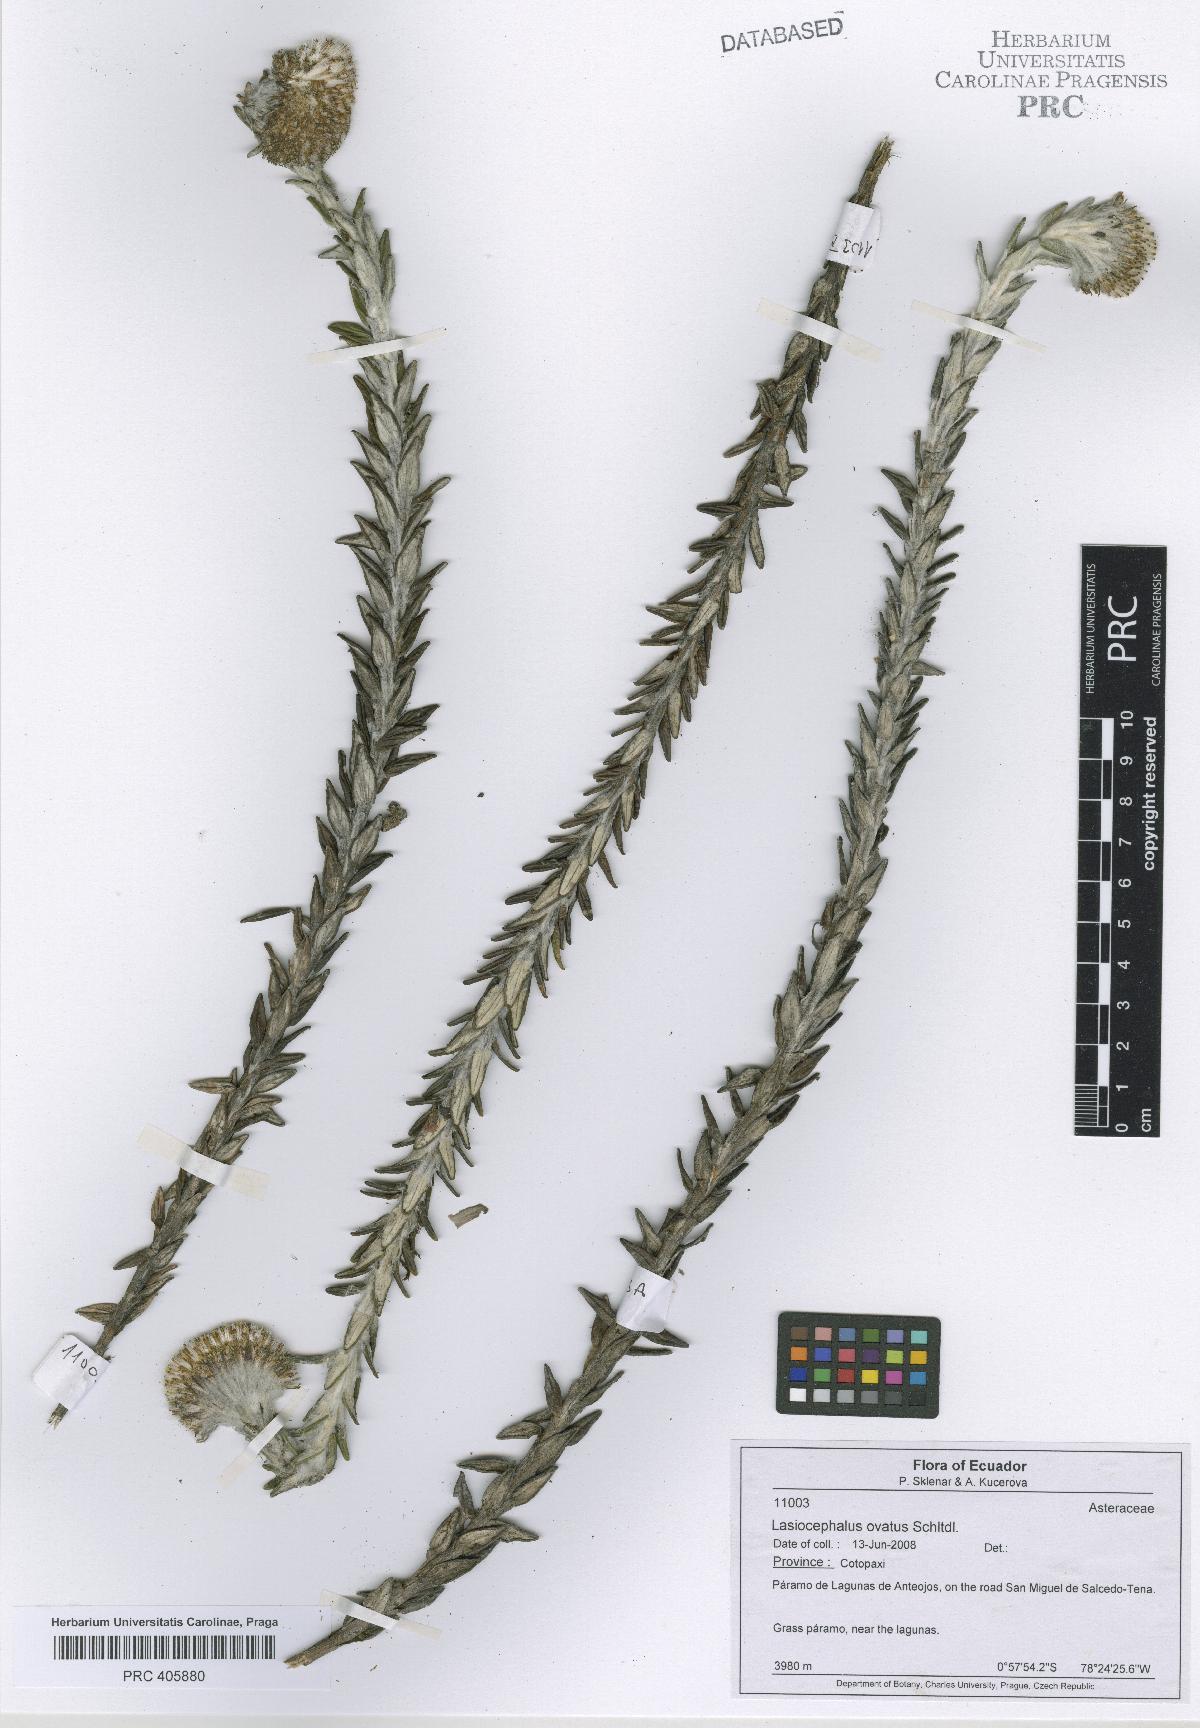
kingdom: Plantae
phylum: Tracheophyta
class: Magnoliopsida
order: Asterales
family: Asteraceae
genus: Lasiocephalus
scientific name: Lasiocephalus ovatus
